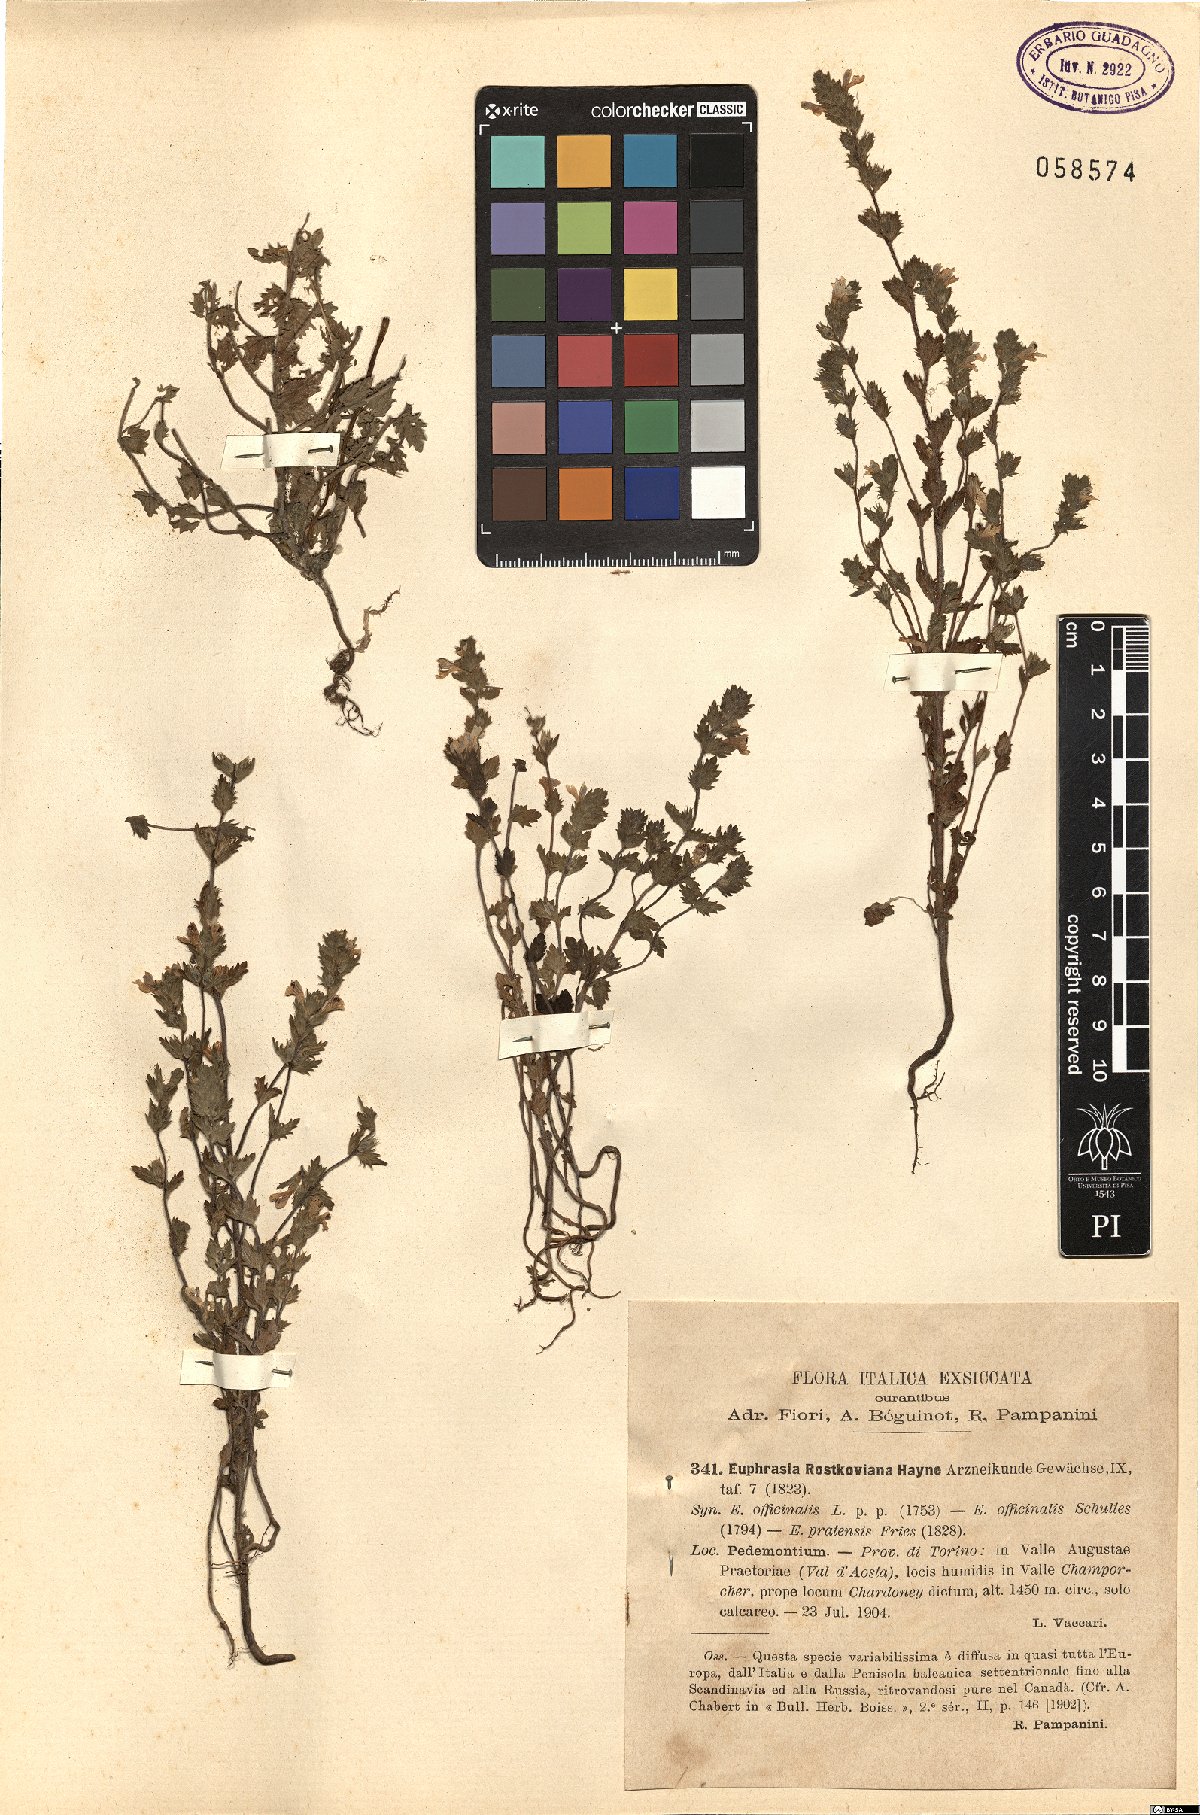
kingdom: Plantae
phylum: Tracheophyta
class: Magnoliopsida
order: Lamiales
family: Orobanchaceae
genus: Euphrasia
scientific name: Euphrasia officinalis
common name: Eyebright
